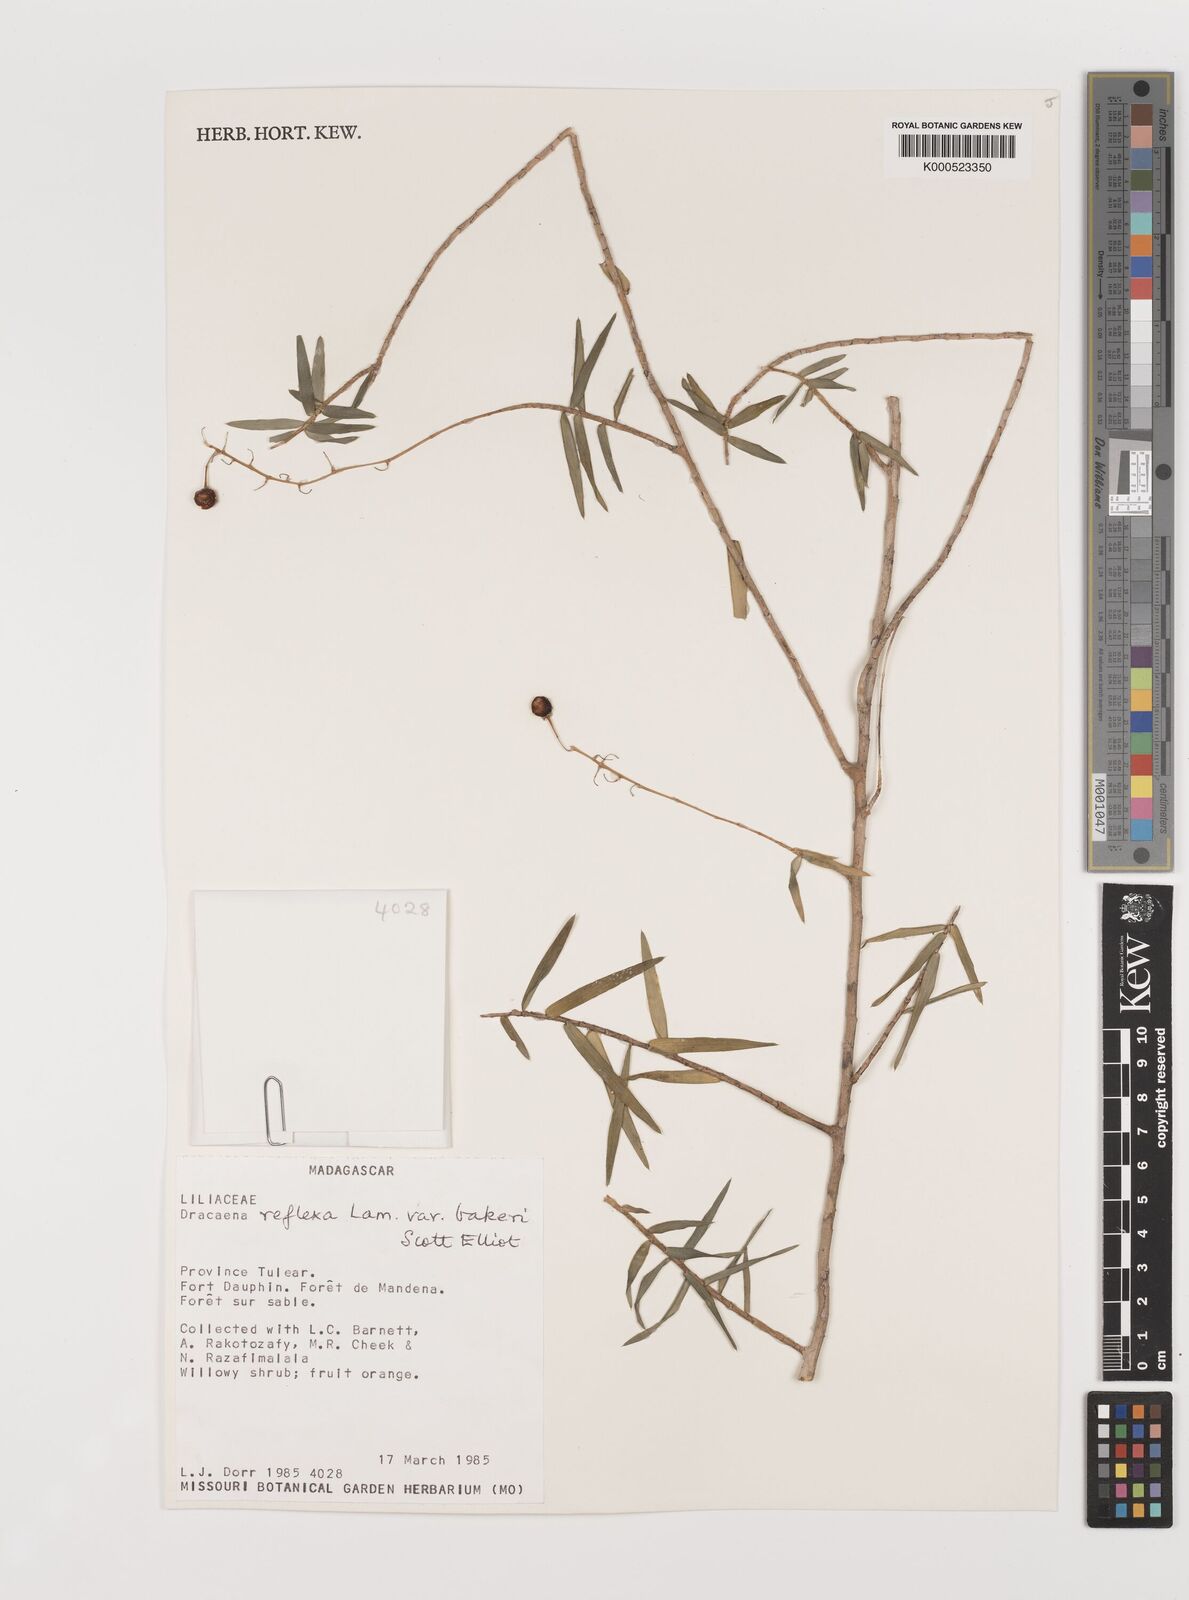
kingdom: Plantae
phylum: Tracheophyta
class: Liliopsida
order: Asparagales
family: Asparagaceae
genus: Dracaena
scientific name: Dracaena reflexa
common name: Song-of-india
